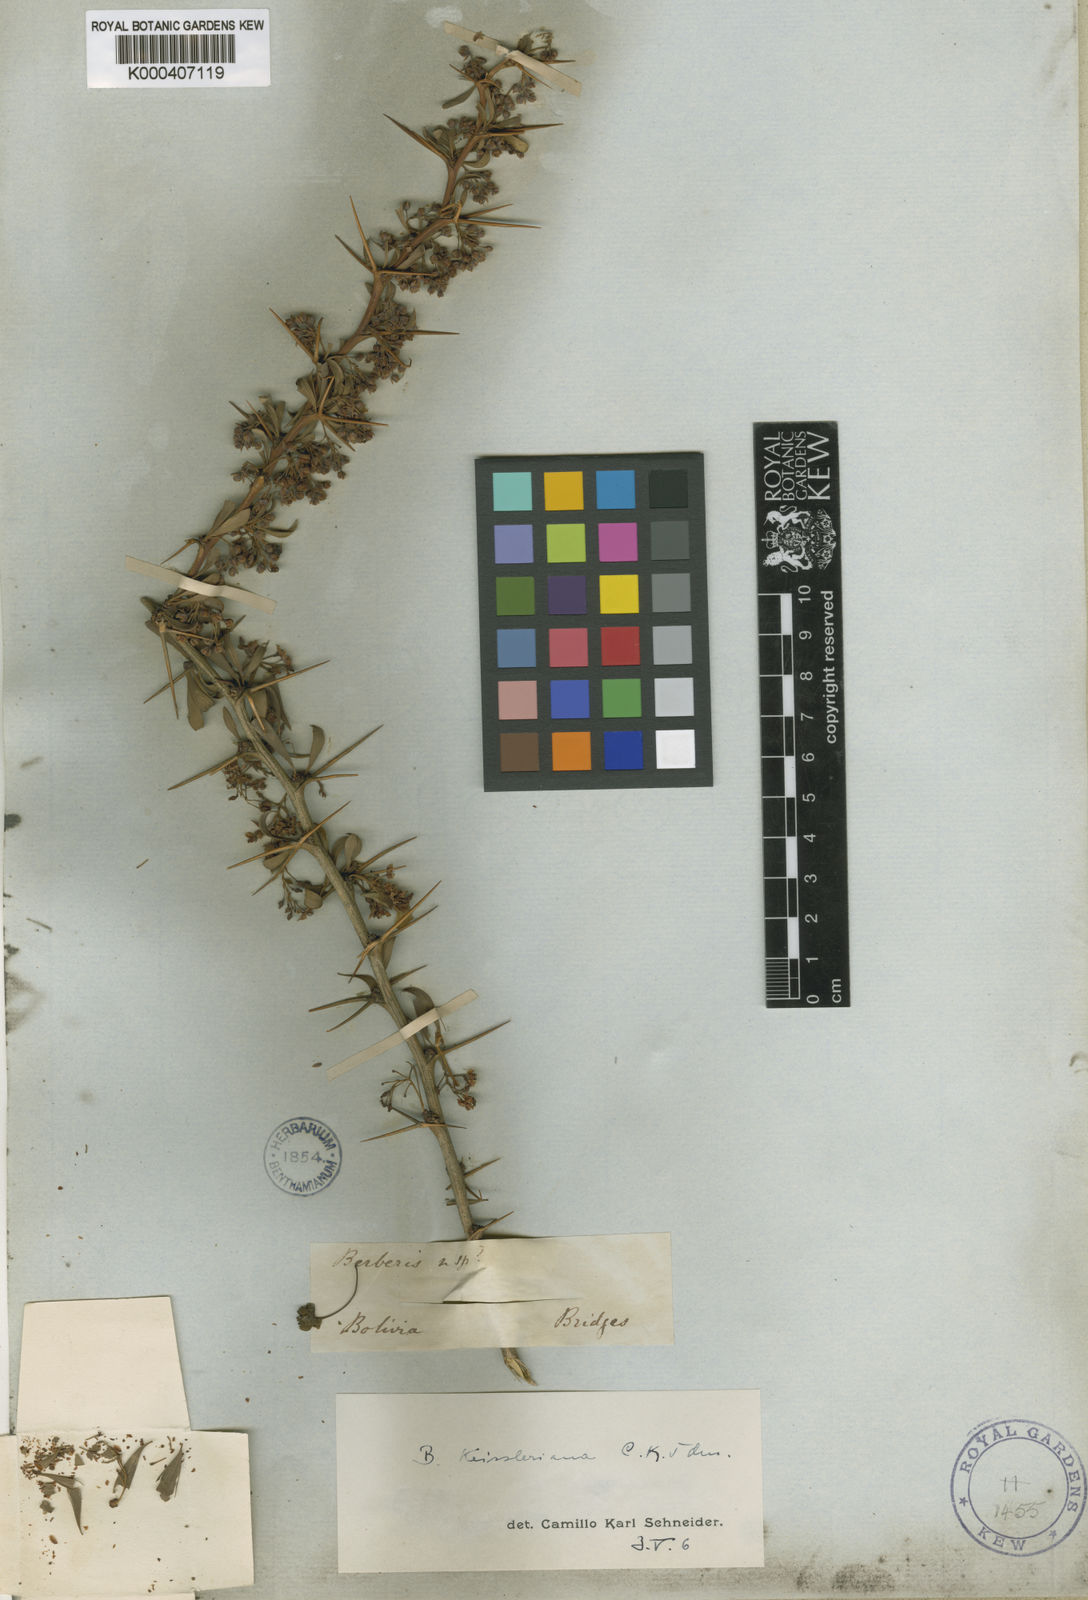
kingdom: Plantae
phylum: Tracheophyta
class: Magnoliopsida
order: Ranunculales
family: Berberidaceae
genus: Berberis
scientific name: Berberis keissleriana
